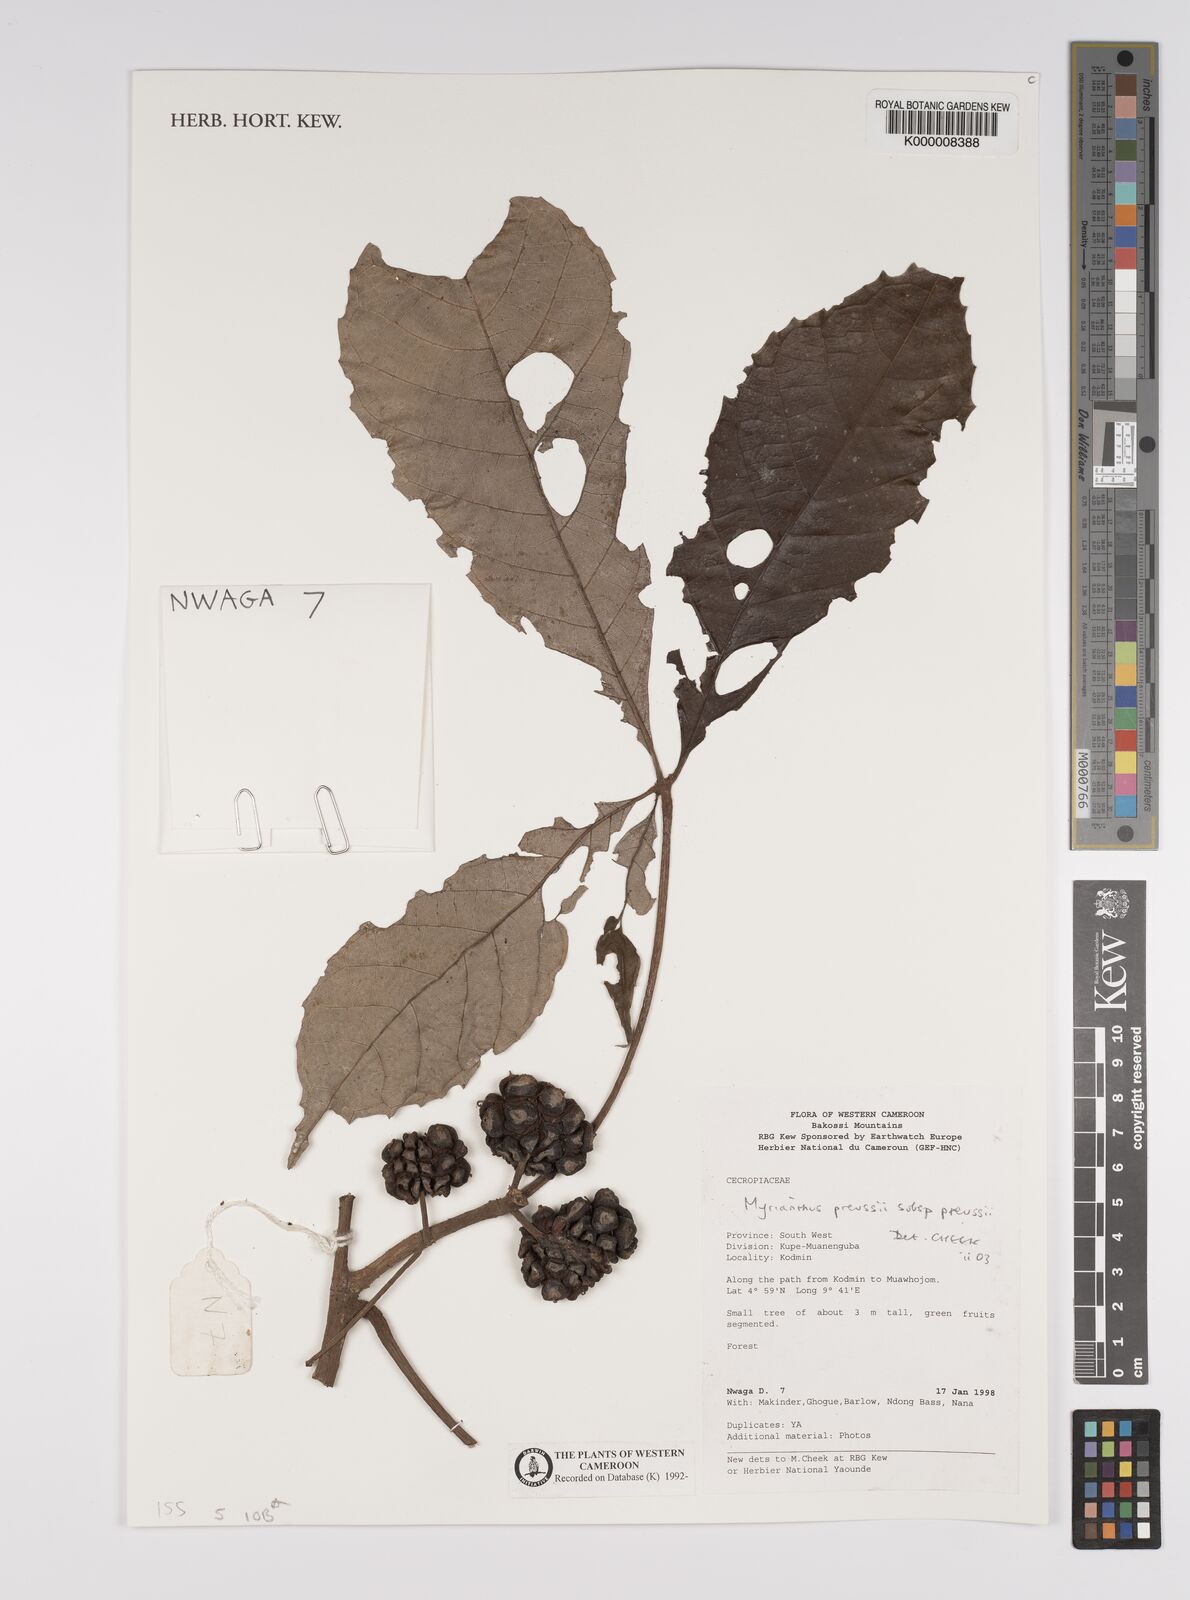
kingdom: Plantae
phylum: Tracheophyta
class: Magnoliopsida
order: Rosales
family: Urticaceae
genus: Myrianthus
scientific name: Myrianthus preussii
